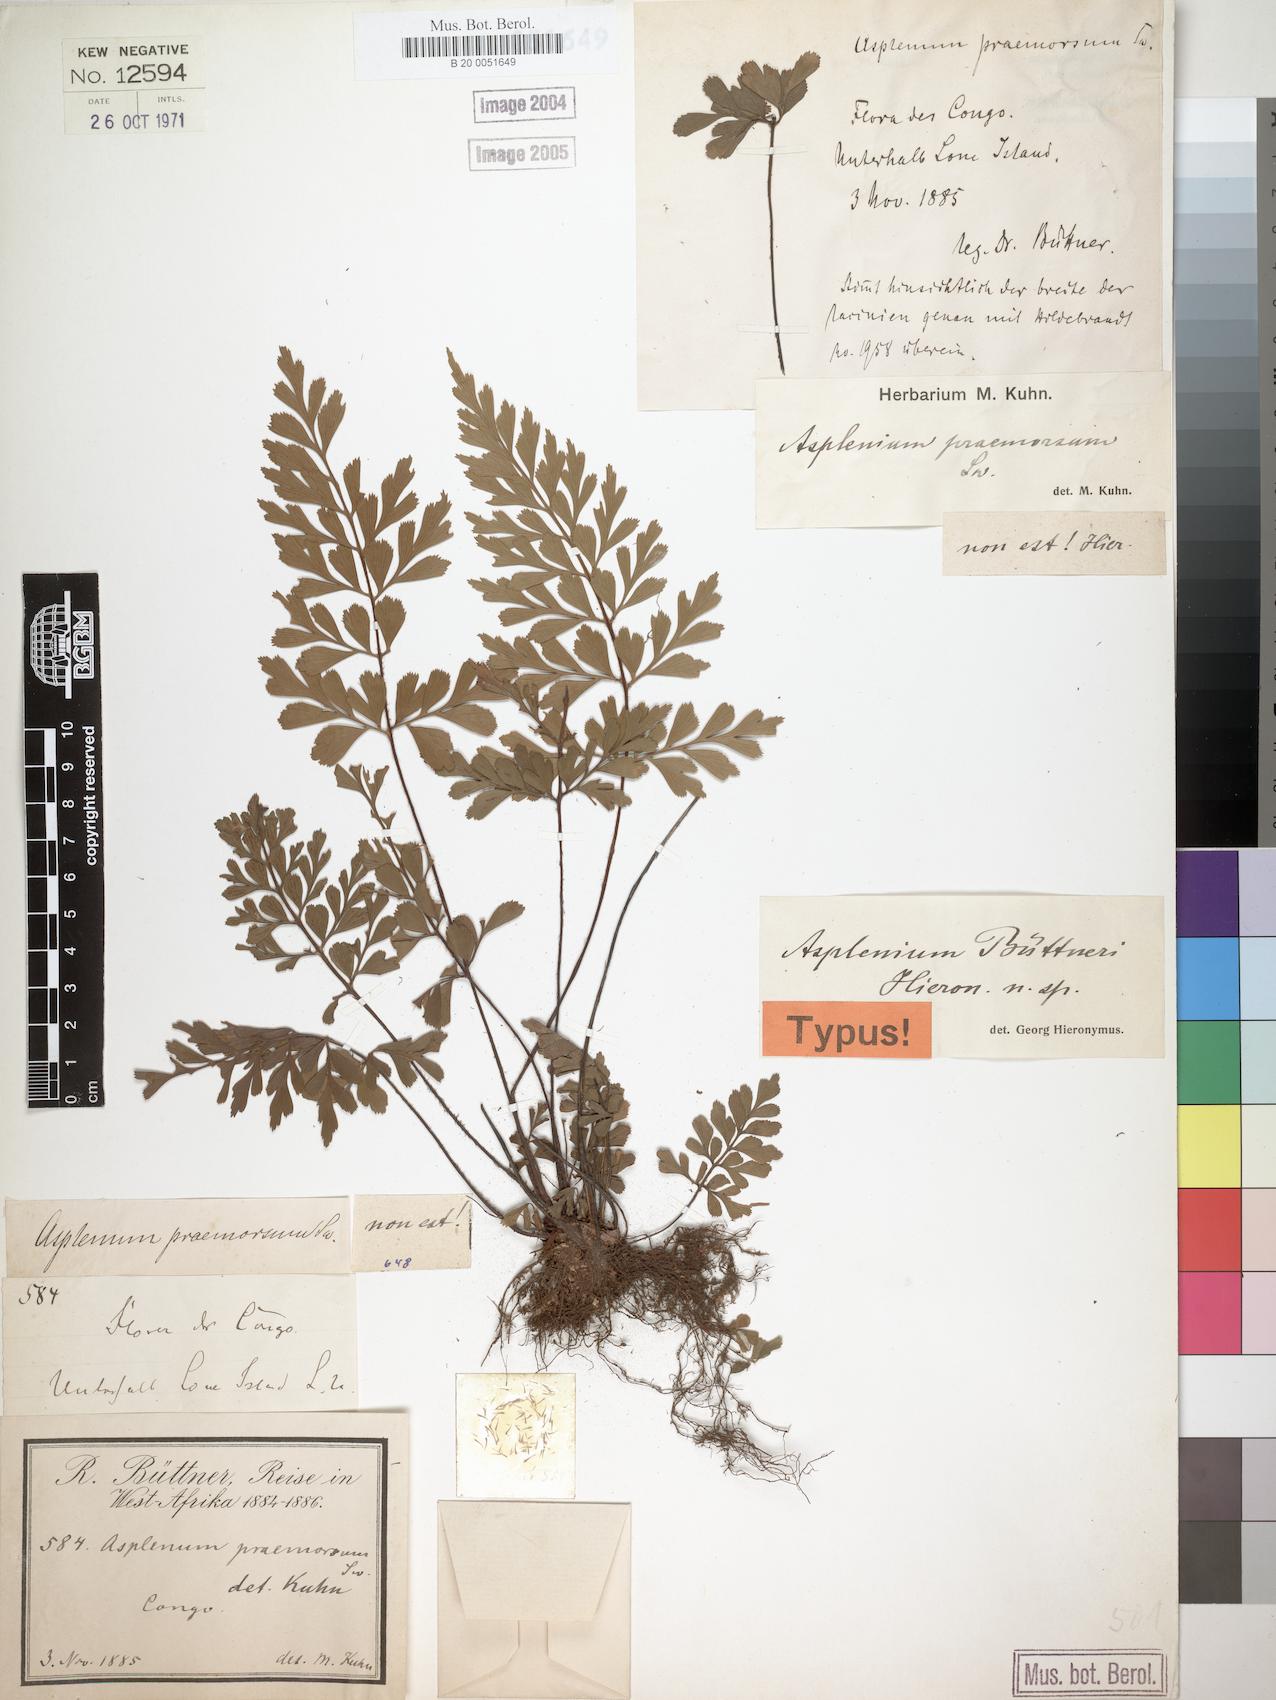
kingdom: Plantae
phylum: Tracheophyta
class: Polypodiopsida
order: Polypodiales
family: Aspleniaceae
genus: Asplenium
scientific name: Asplenium buettneri
